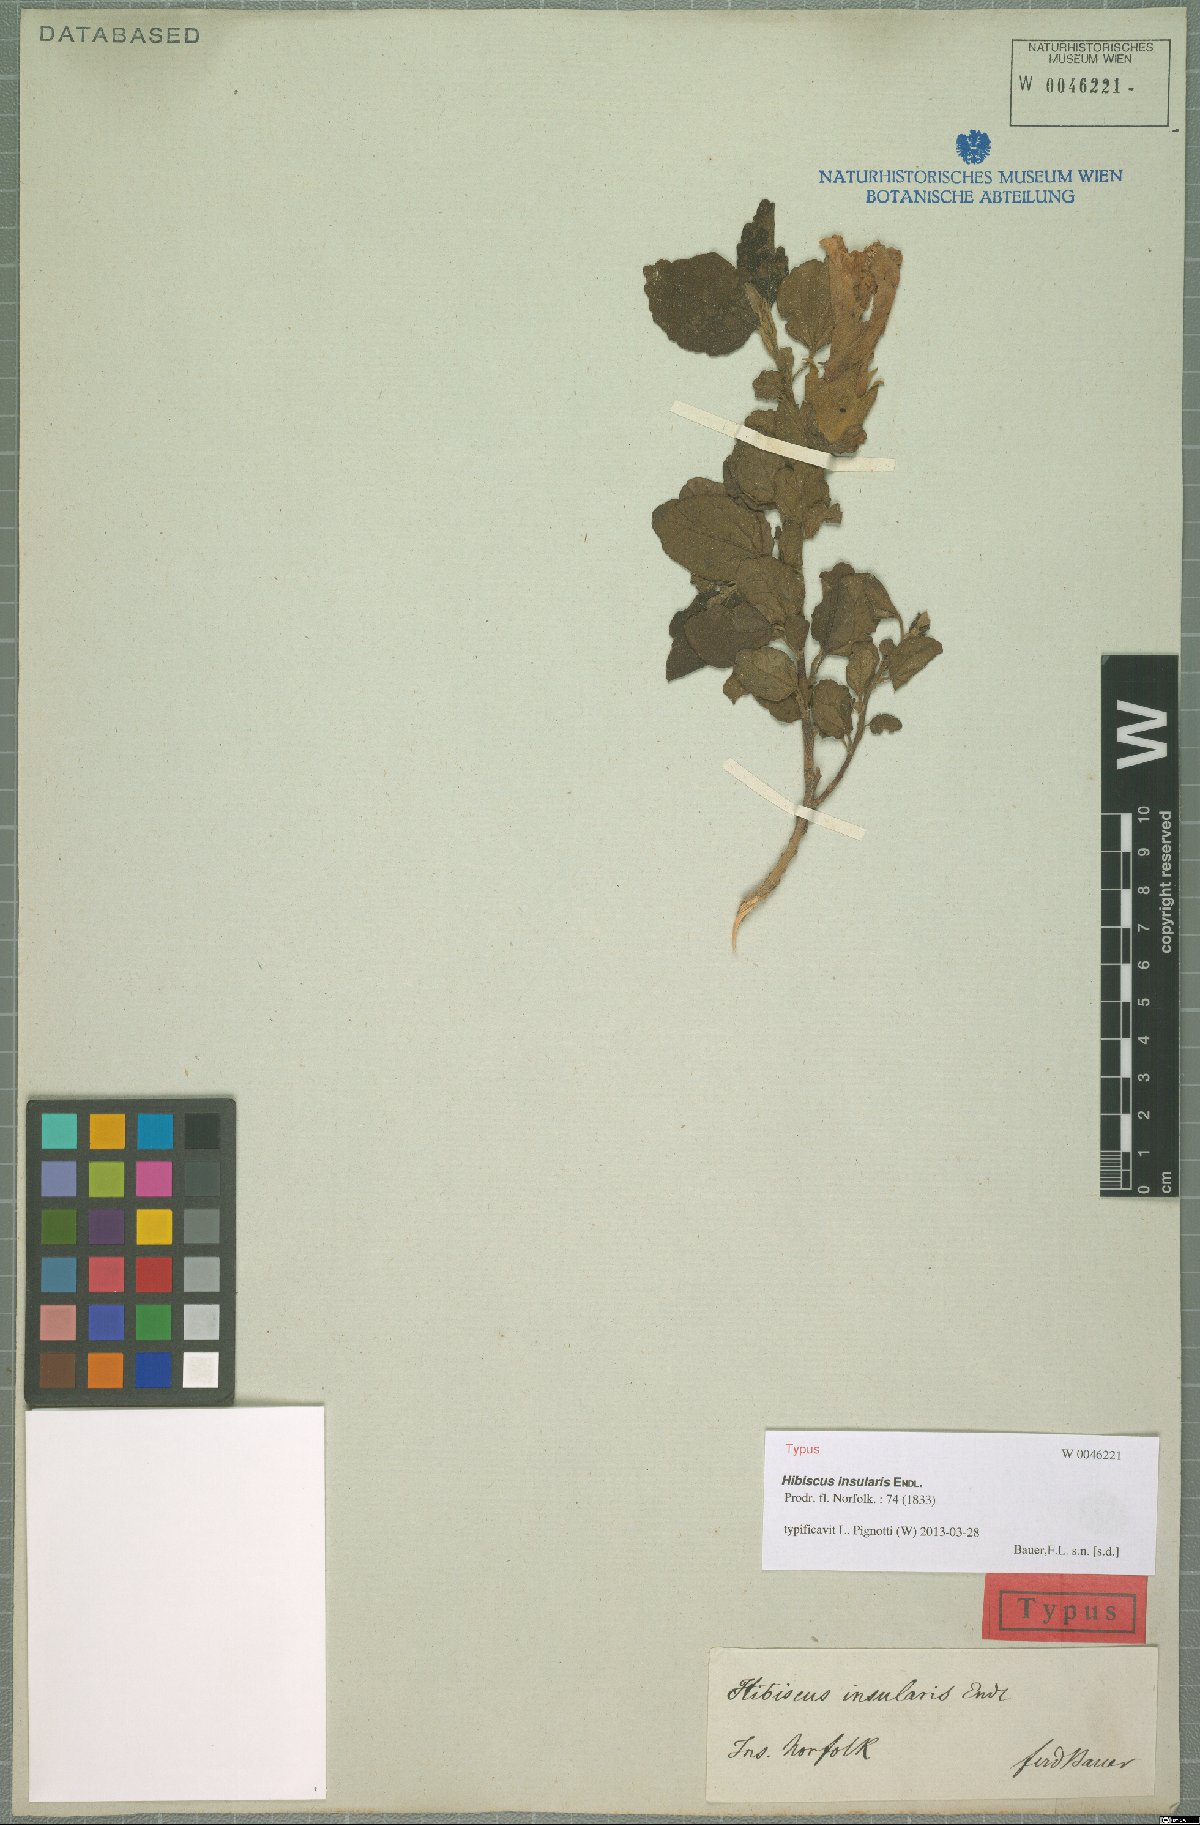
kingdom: Plantae
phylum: Tracheophyta
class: Magnoliopsida
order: Malvales
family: Malvaceae
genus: Hibiscus
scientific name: Hibiscus insularis
